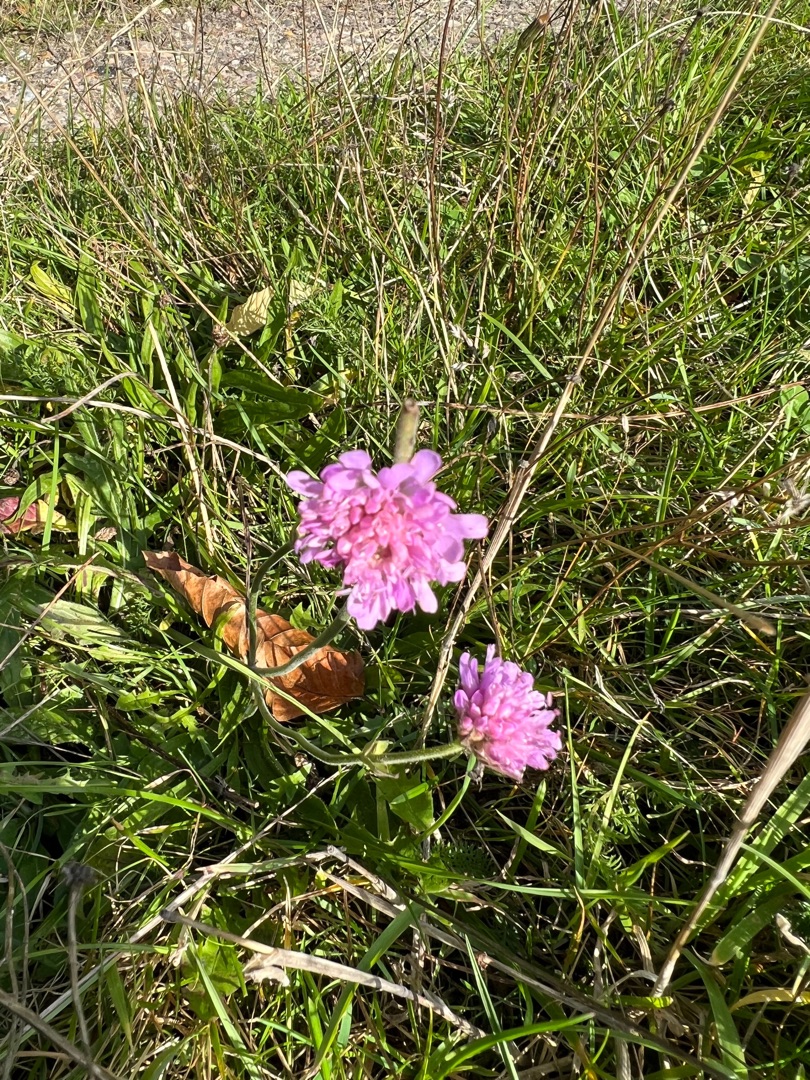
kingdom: Plantae
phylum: Tracheophyta
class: Magnoliopsida
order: Dipsacales
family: Caprifoliaceae
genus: Knautia
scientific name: Knautia arvensis
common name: Blåhat
